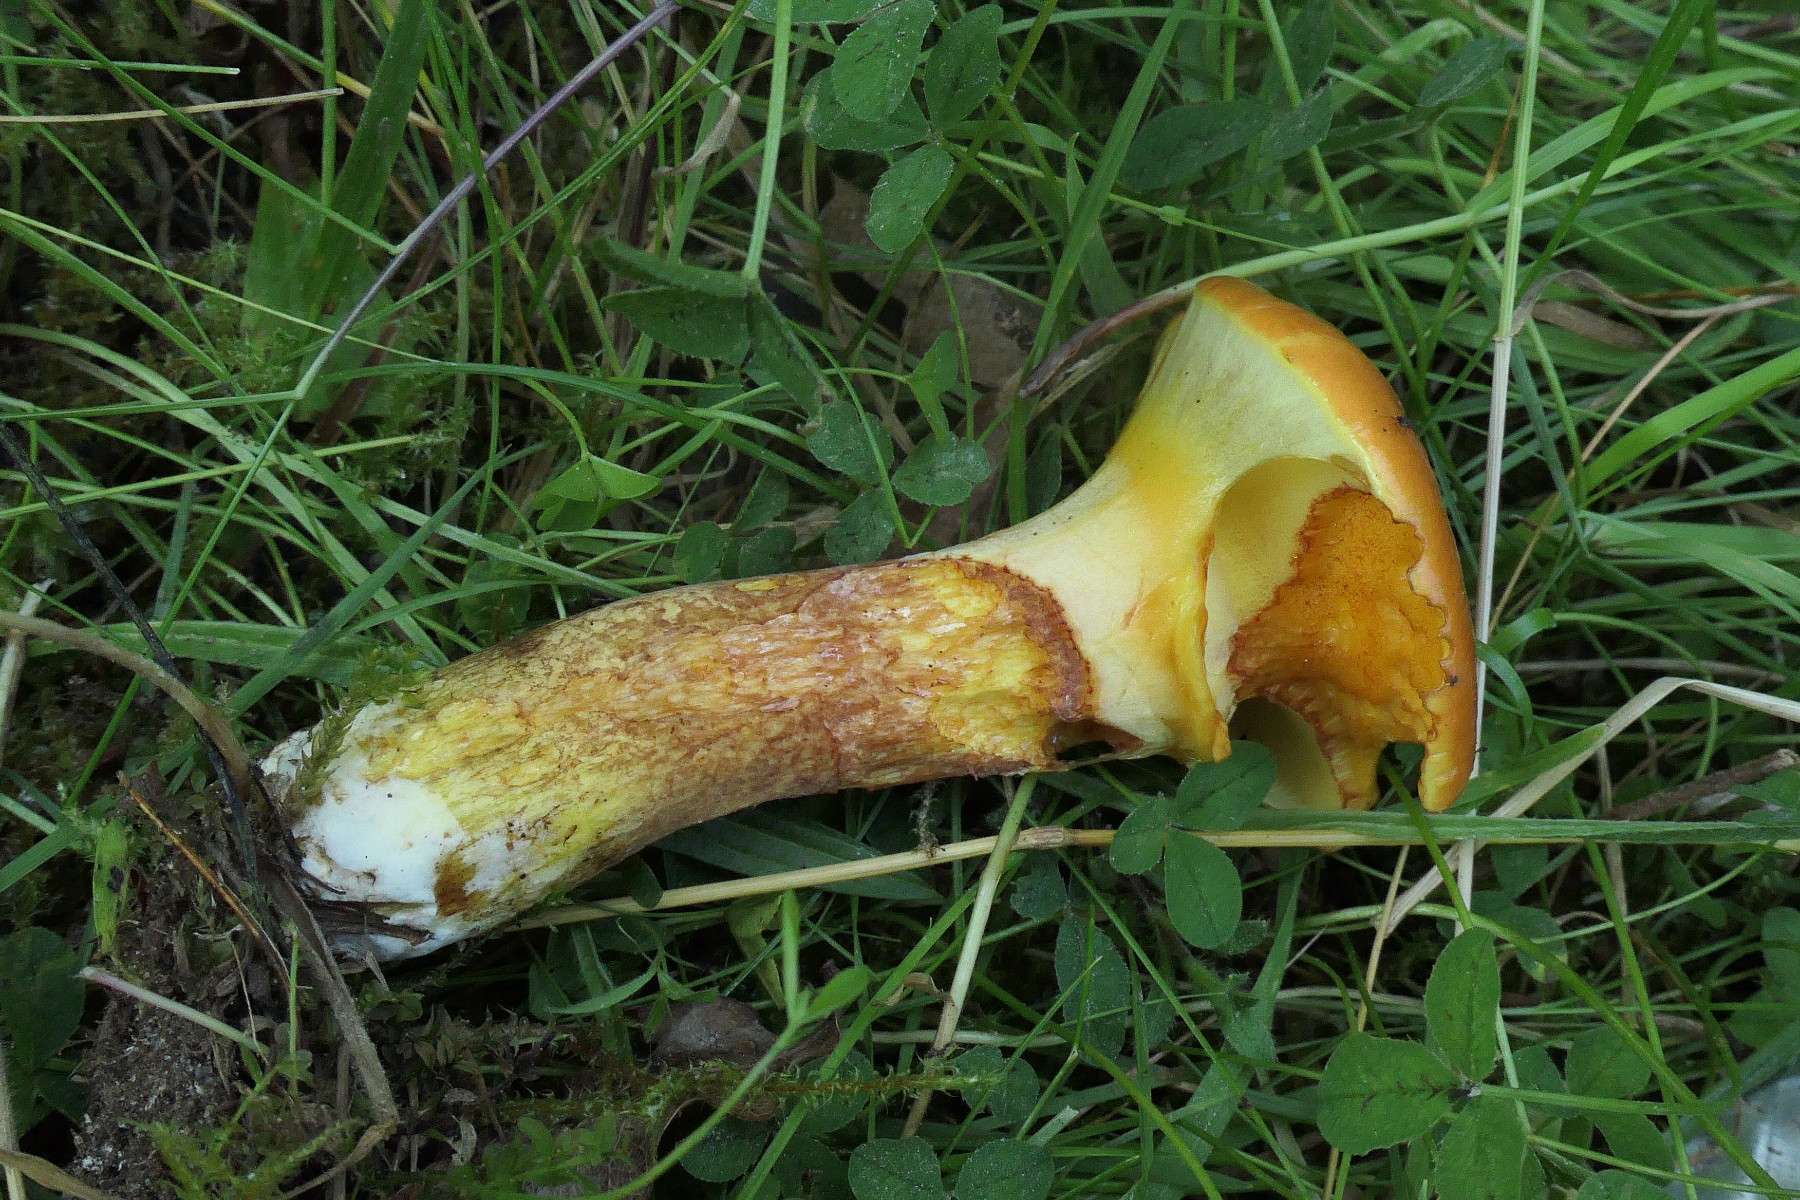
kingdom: Fungi
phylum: Basidiomycota
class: Agaricomycetes
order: Boletales
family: Suillaceae
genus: Suillus
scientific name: Suillus grevillei
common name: lærke-slimrørhat
